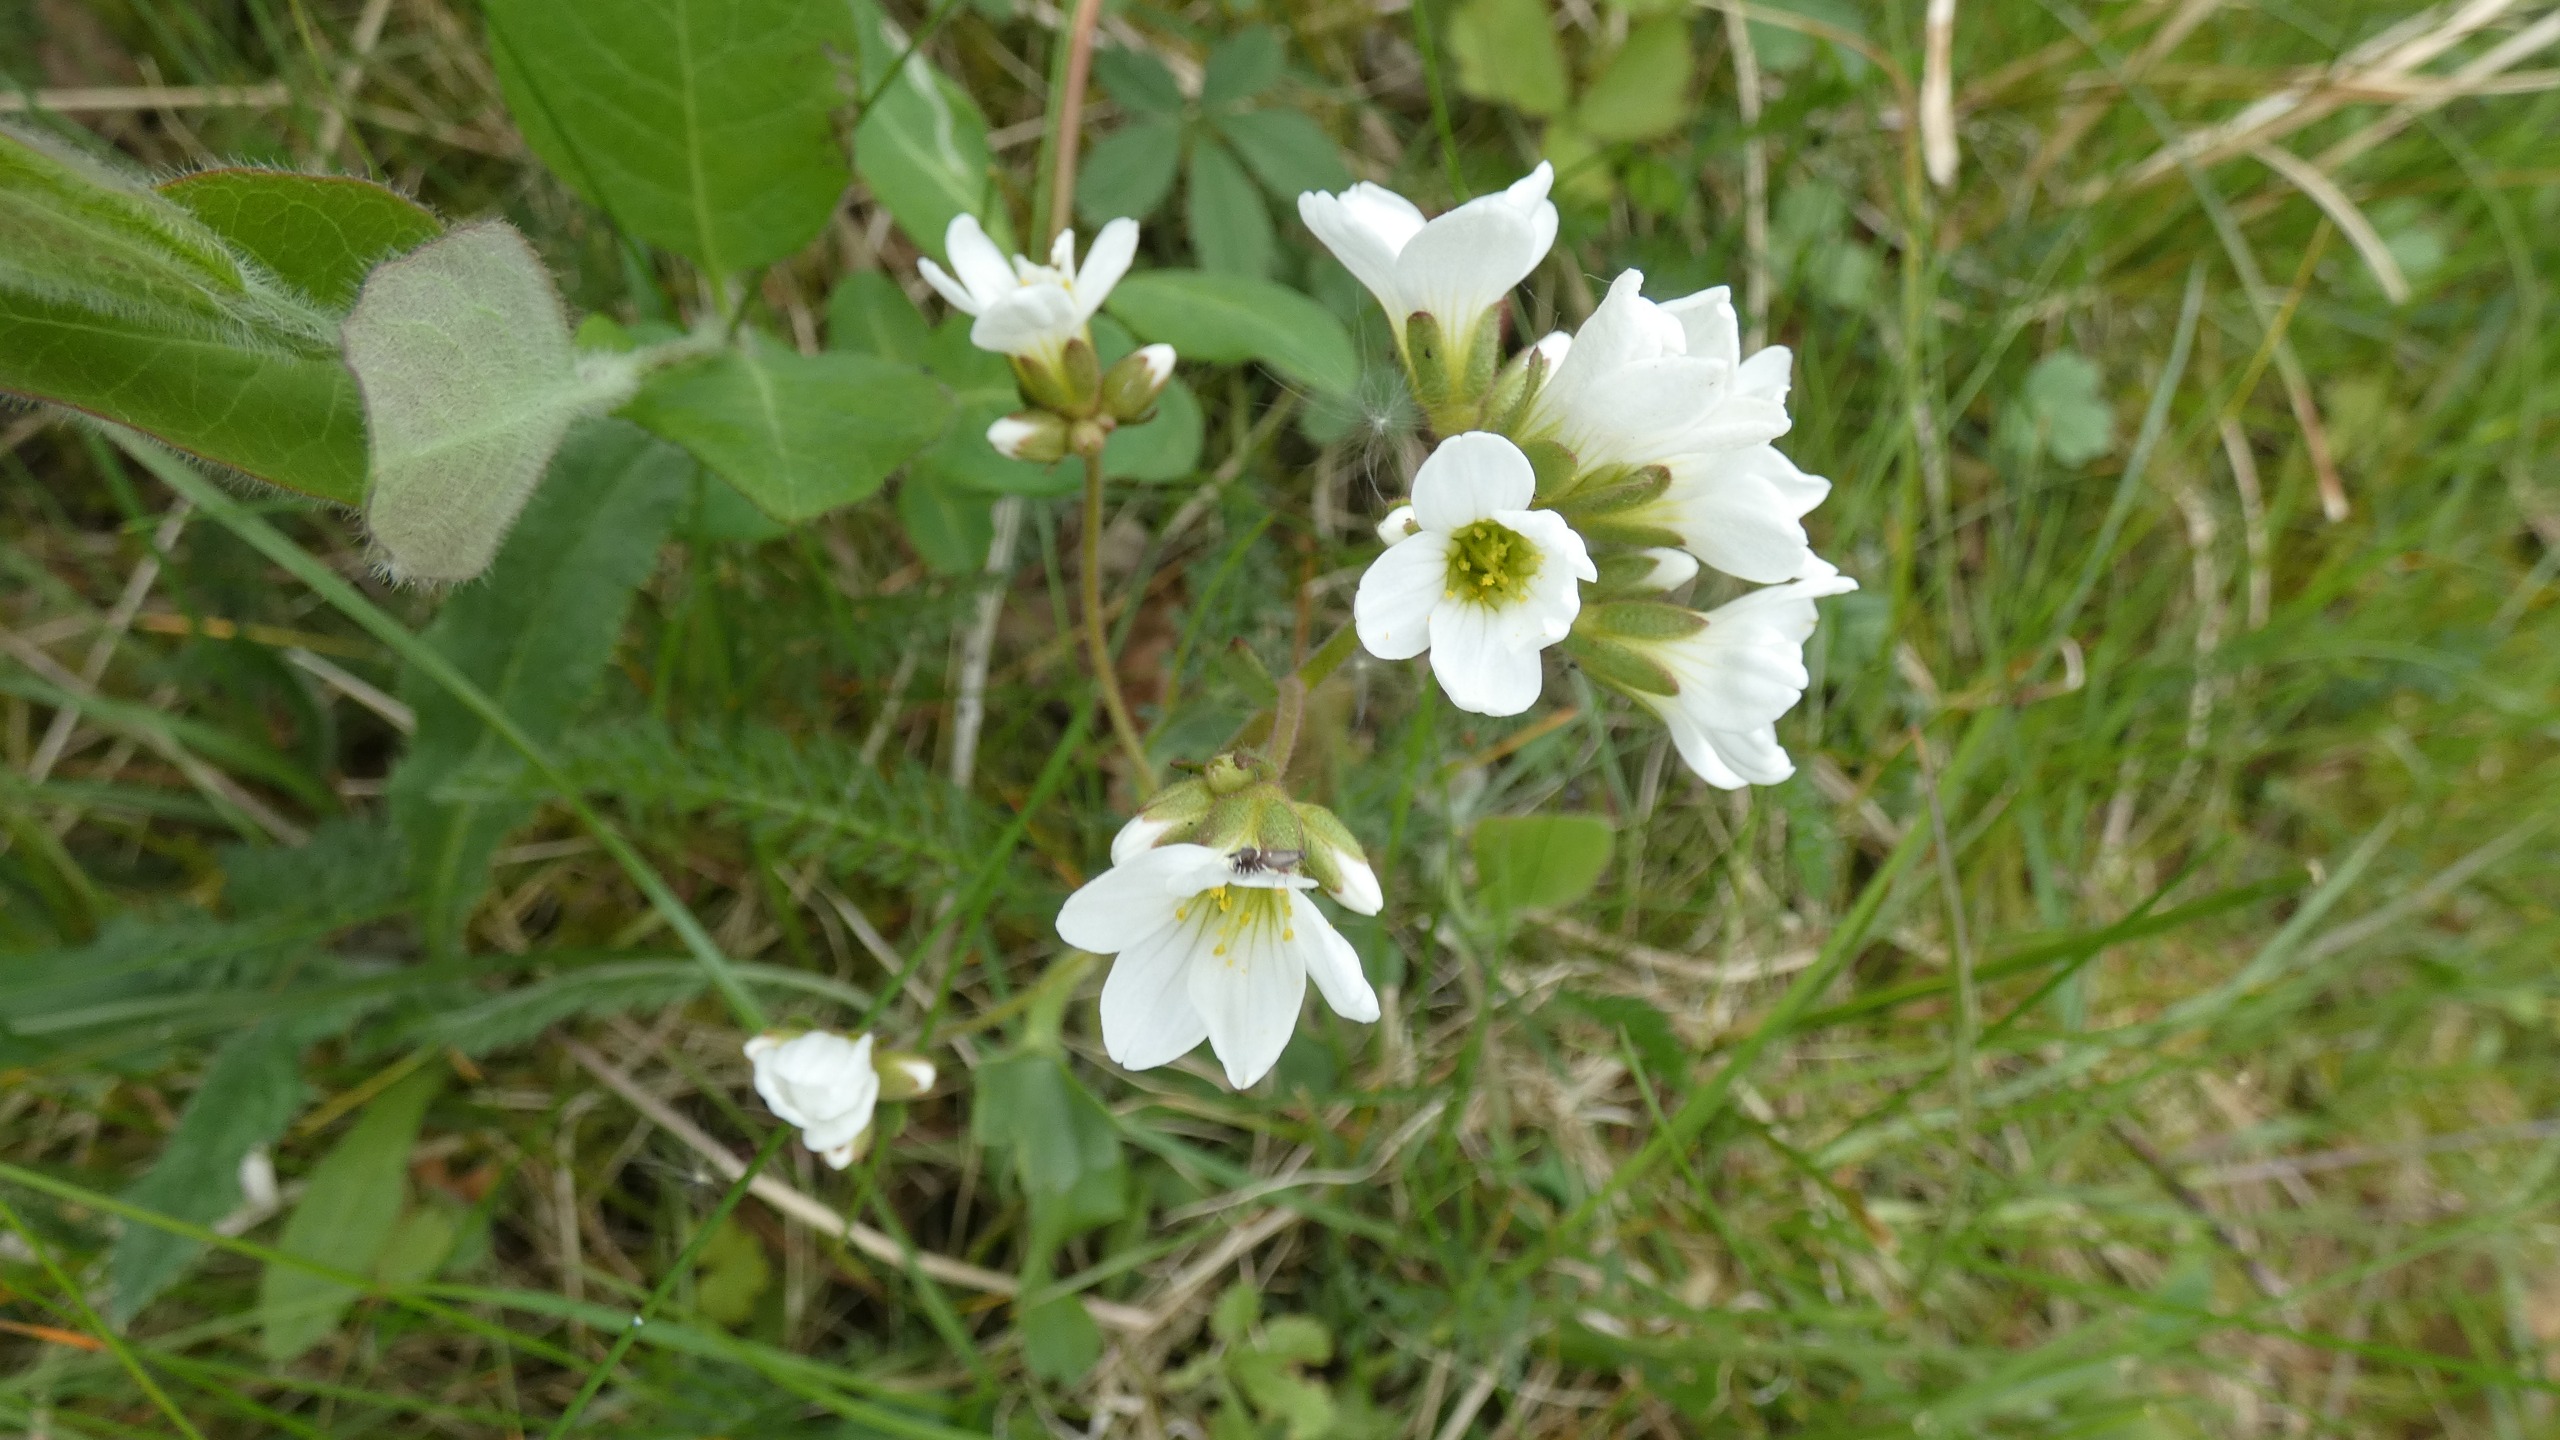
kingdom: Plantae
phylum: Tracheophyta
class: Magnoliopsida
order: Saxifragales
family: Saxifragaceae
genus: Saxifraga
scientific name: Saxifraga granulata
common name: Kornet stenbræk
